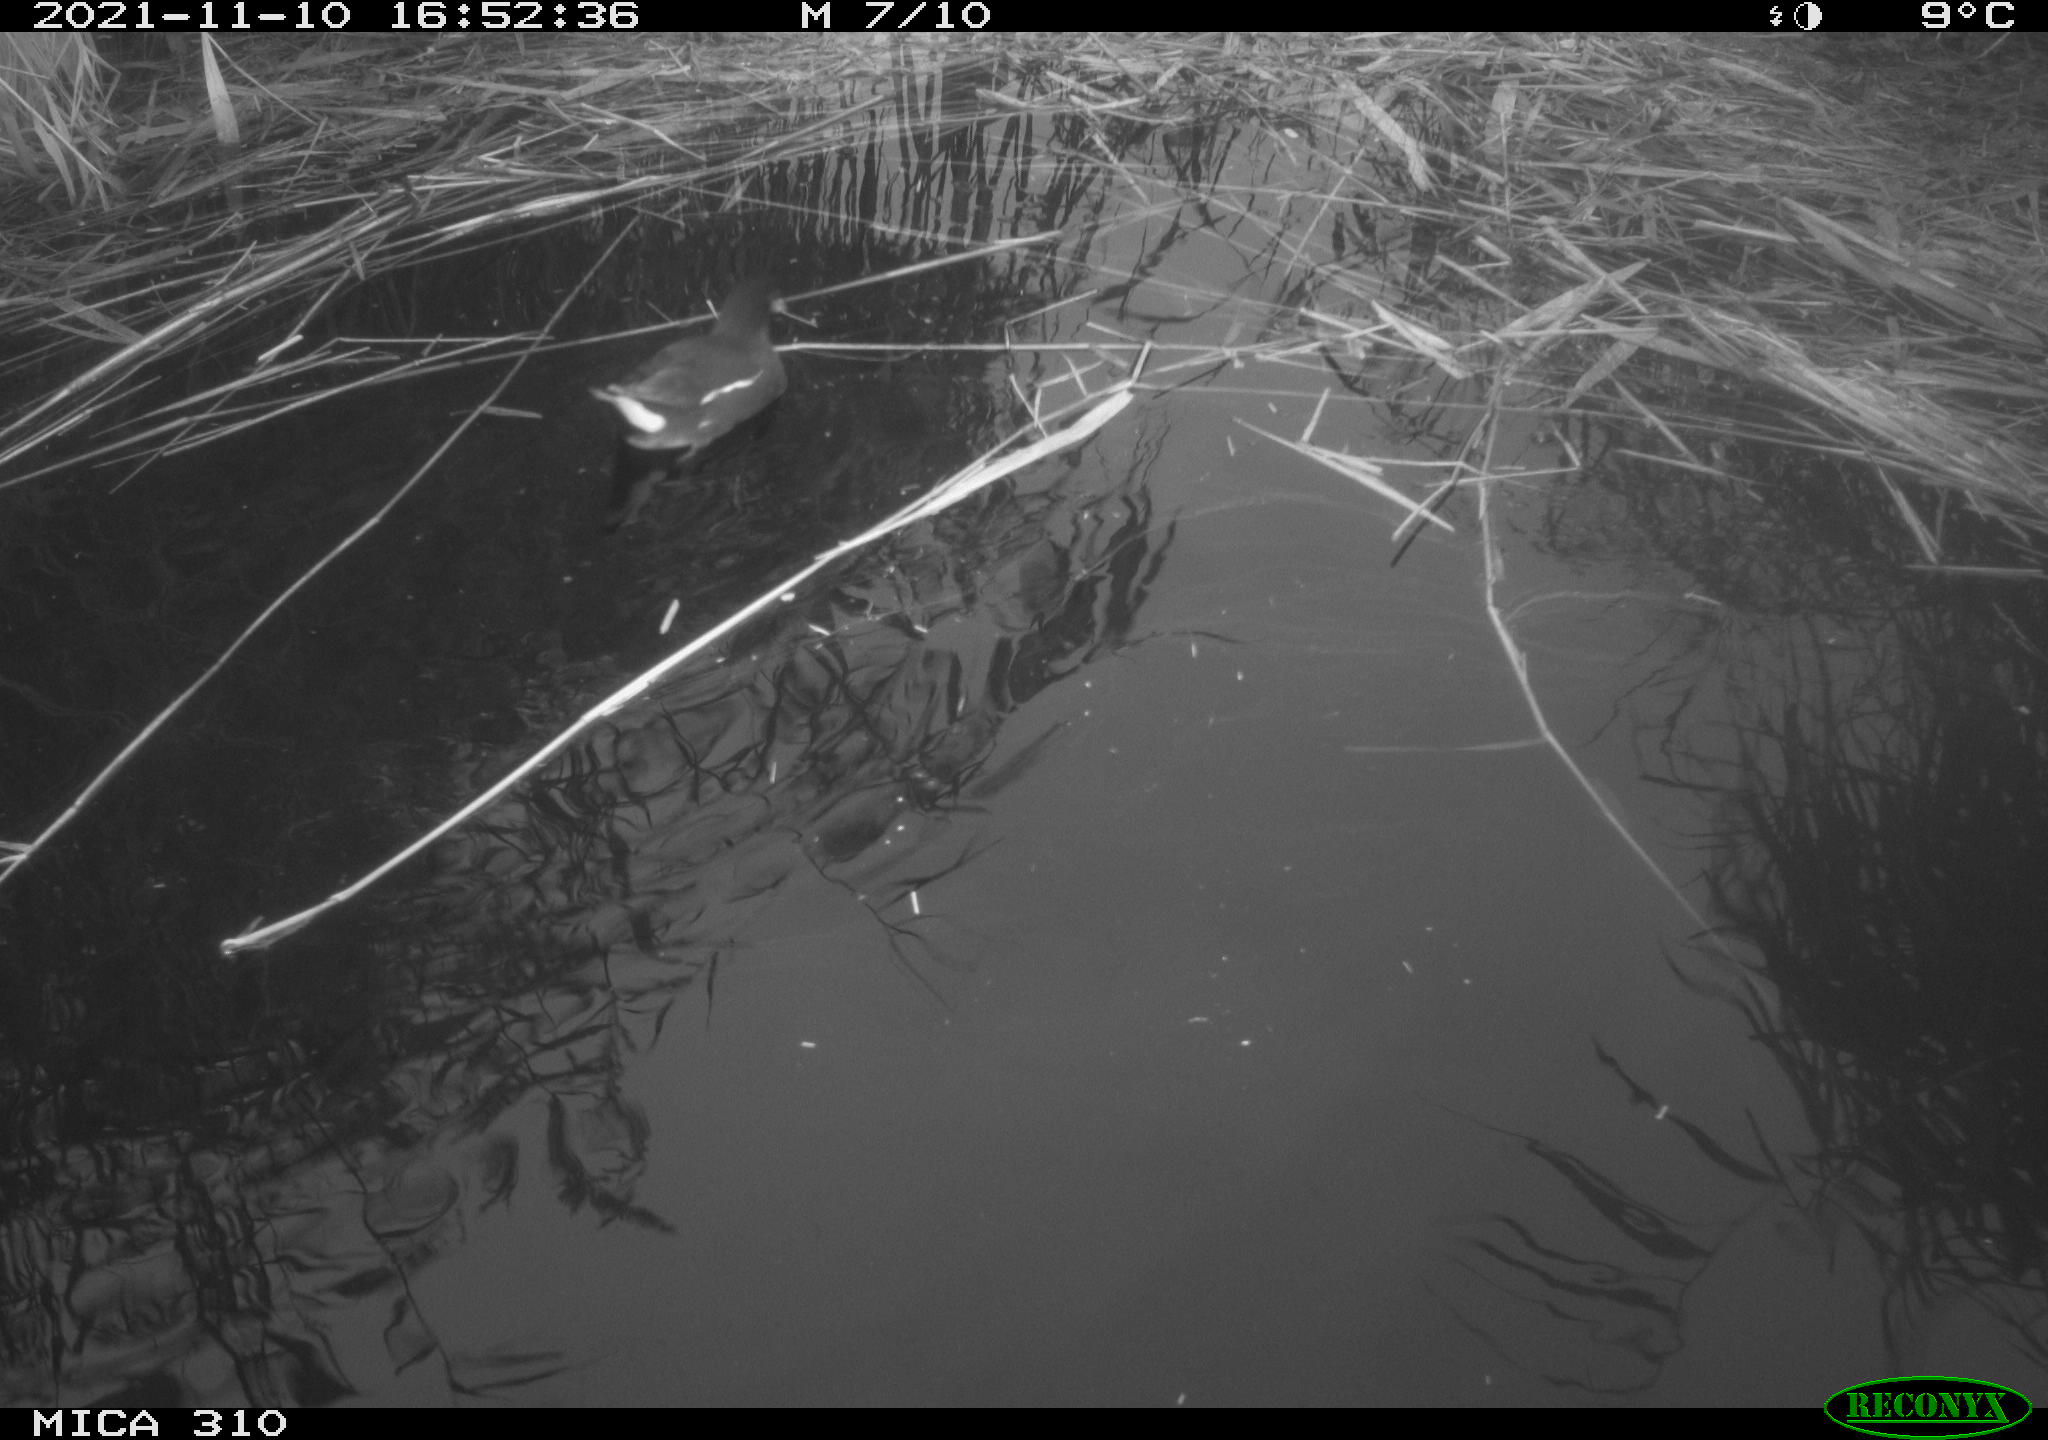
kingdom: Animalia
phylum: Chordata
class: Aves
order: Gruiformes
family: Rallidae
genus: Gallinula
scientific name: Gallinula chloropus
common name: Common moorhen
